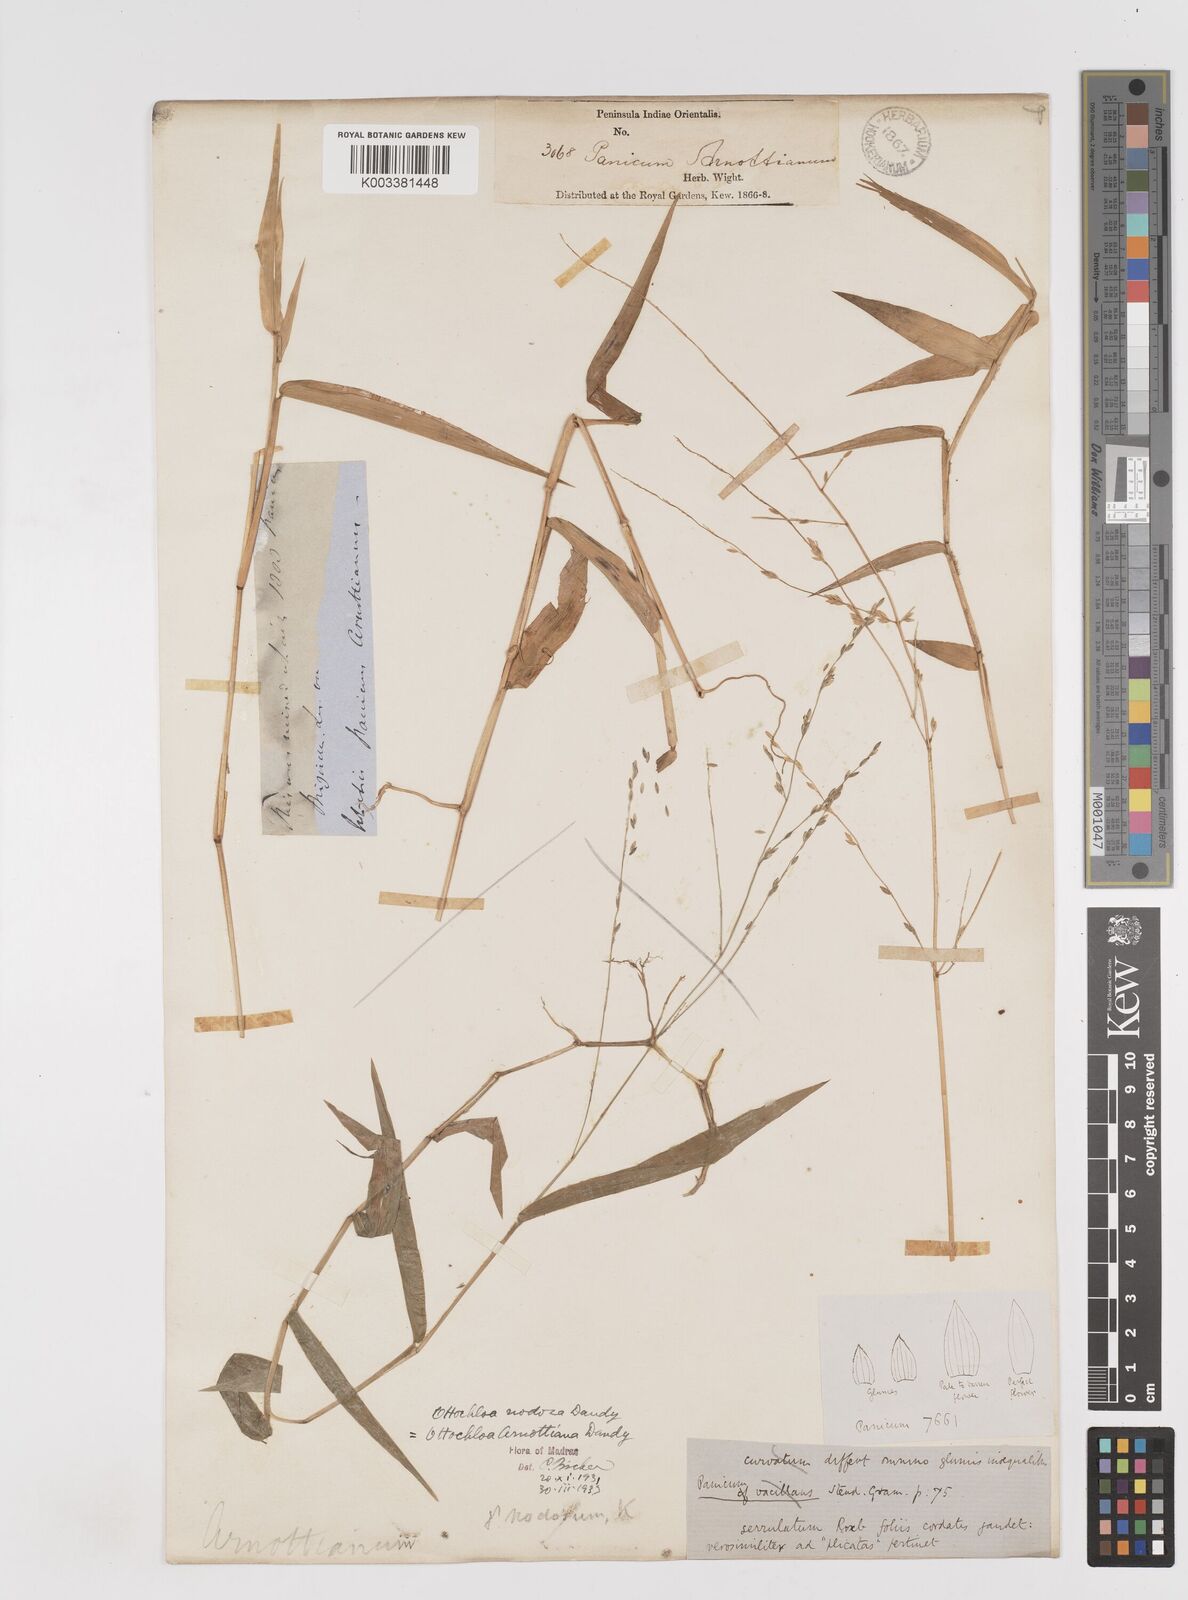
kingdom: Plantae
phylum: Tracheophyta
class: Liliopsida
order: Poales
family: Poaceae
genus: Ottochloa
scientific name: Ottochloa nodosa
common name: Slender-panic grass
